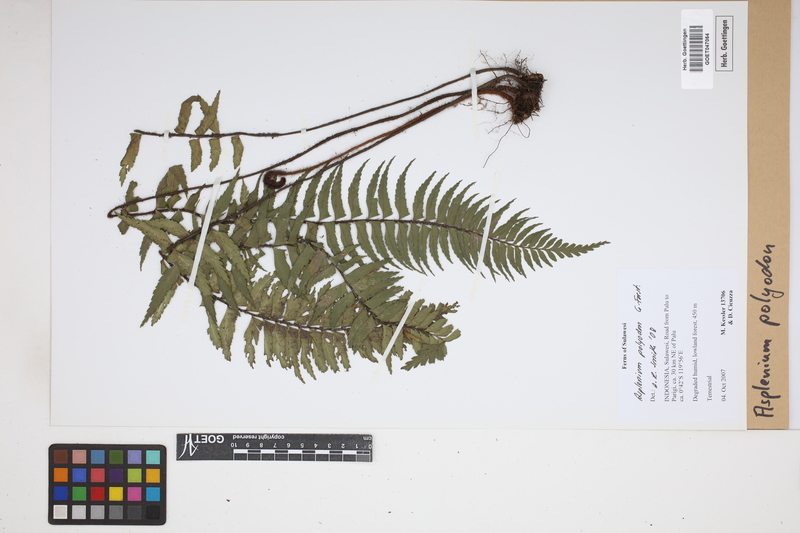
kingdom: Plantae
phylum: Tracheophyta
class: Polypodiopsida
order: Polypodiales
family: Aspleniaceae
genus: Asplenium
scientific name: Asplenium polyodon
